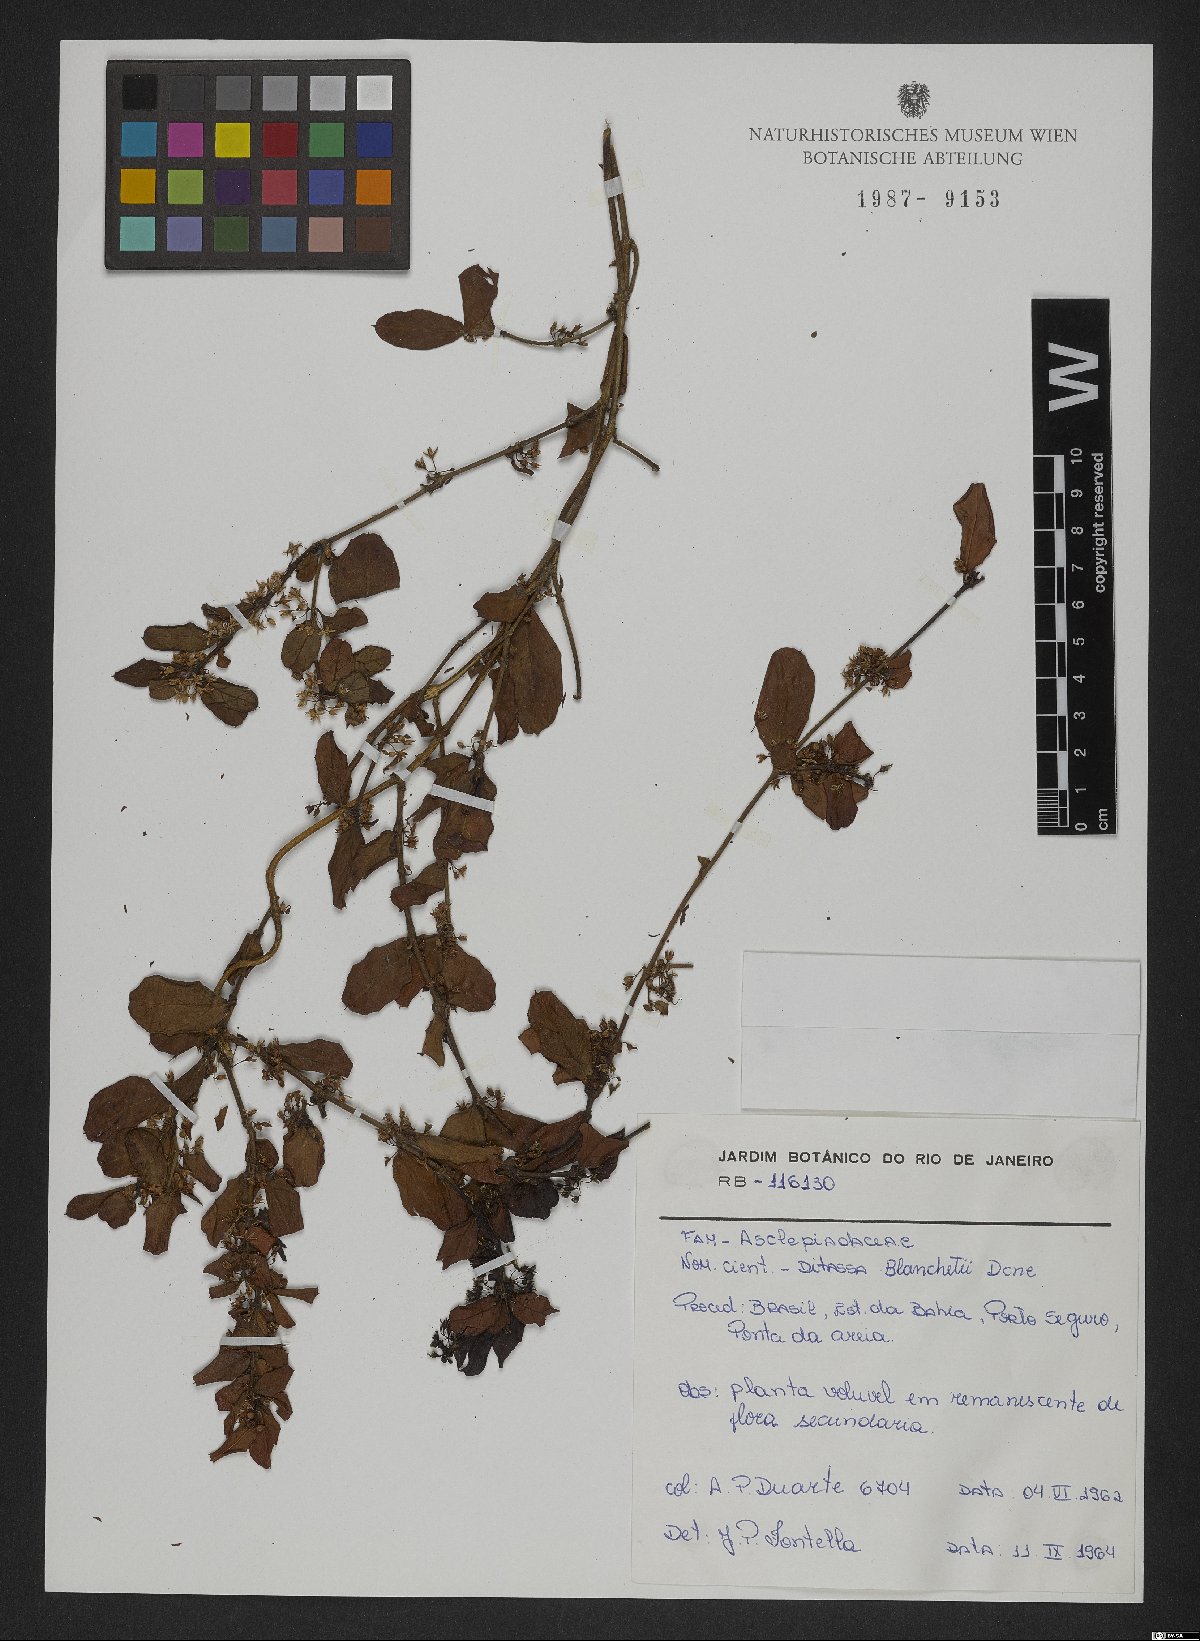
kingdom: Plantae
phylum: Tracheophyta
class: Magnoliopsida
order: Gentianales
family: Apocynaceae
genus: Ditassa
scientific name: Ditassa blanchetii
